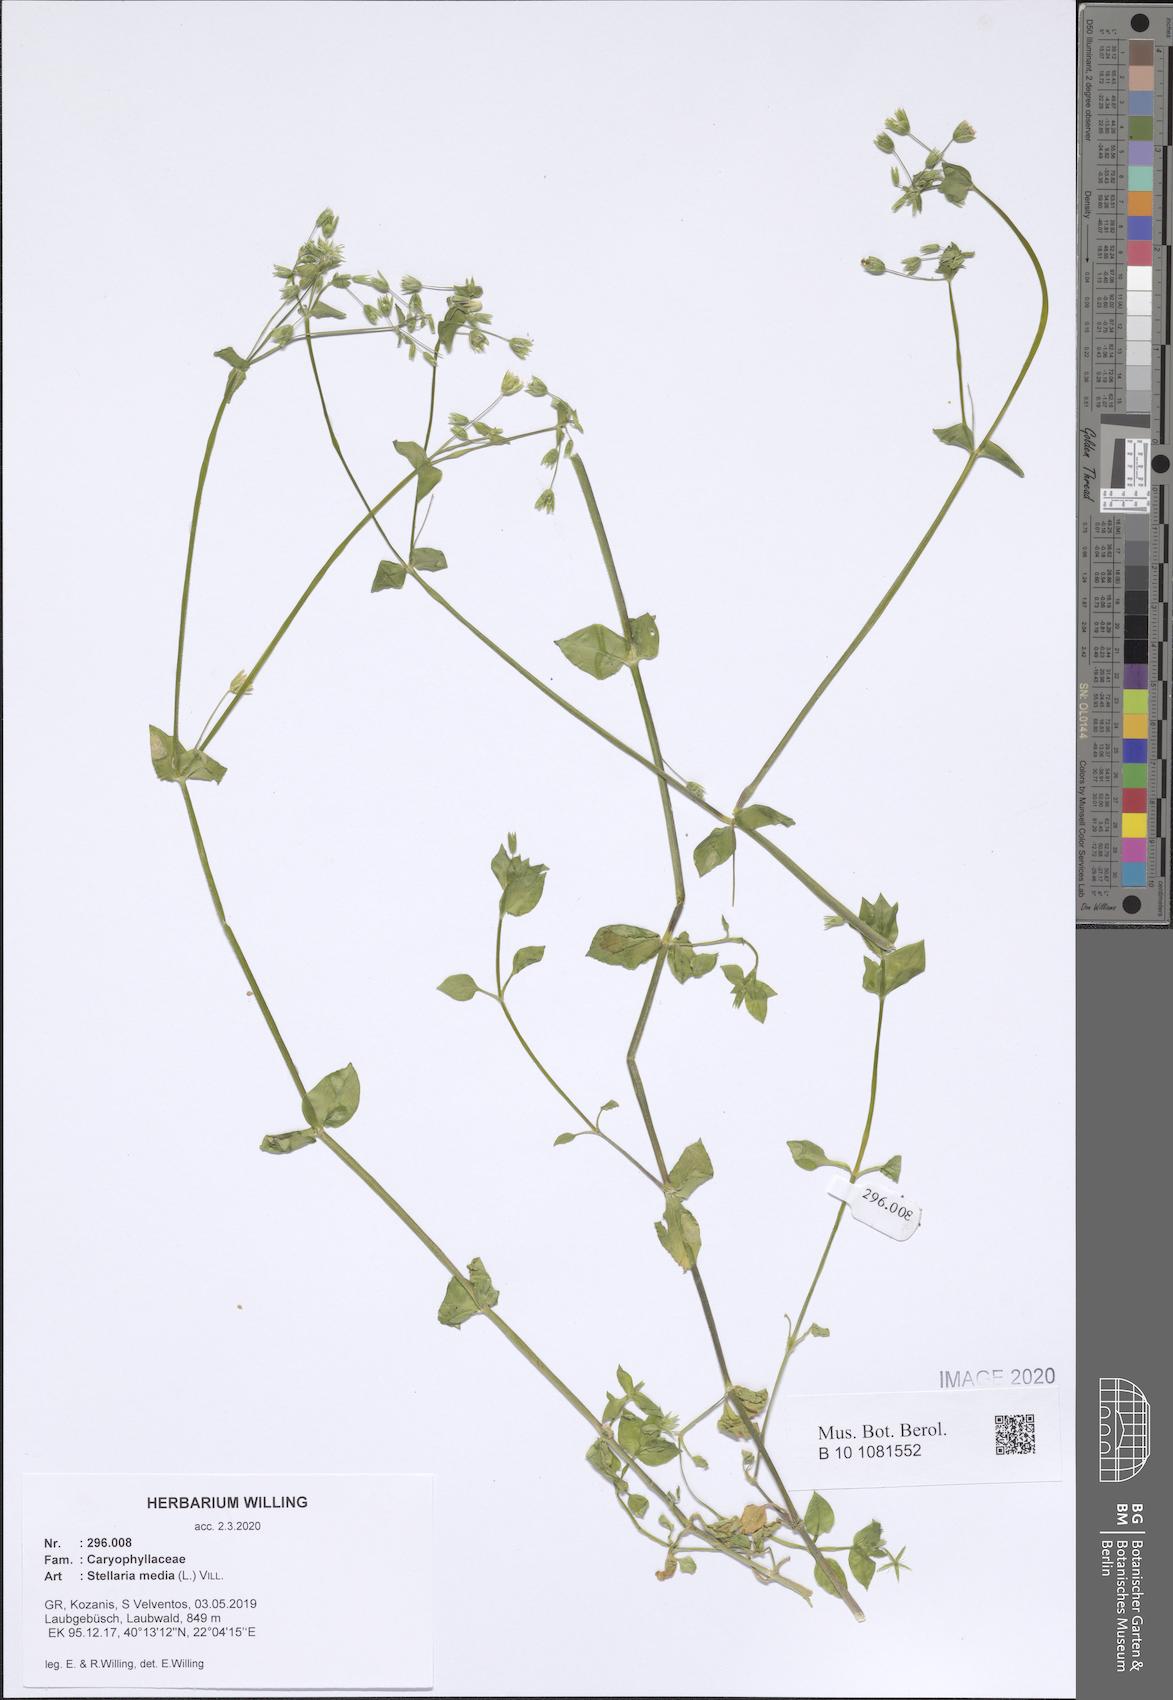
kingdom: Plantae
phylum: Tracheophyta
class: Magnoliopsida
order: Caryophyllales
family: Caryophyllaceae
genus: Stellaria
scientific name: Stellaria media
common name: Common chickweed
